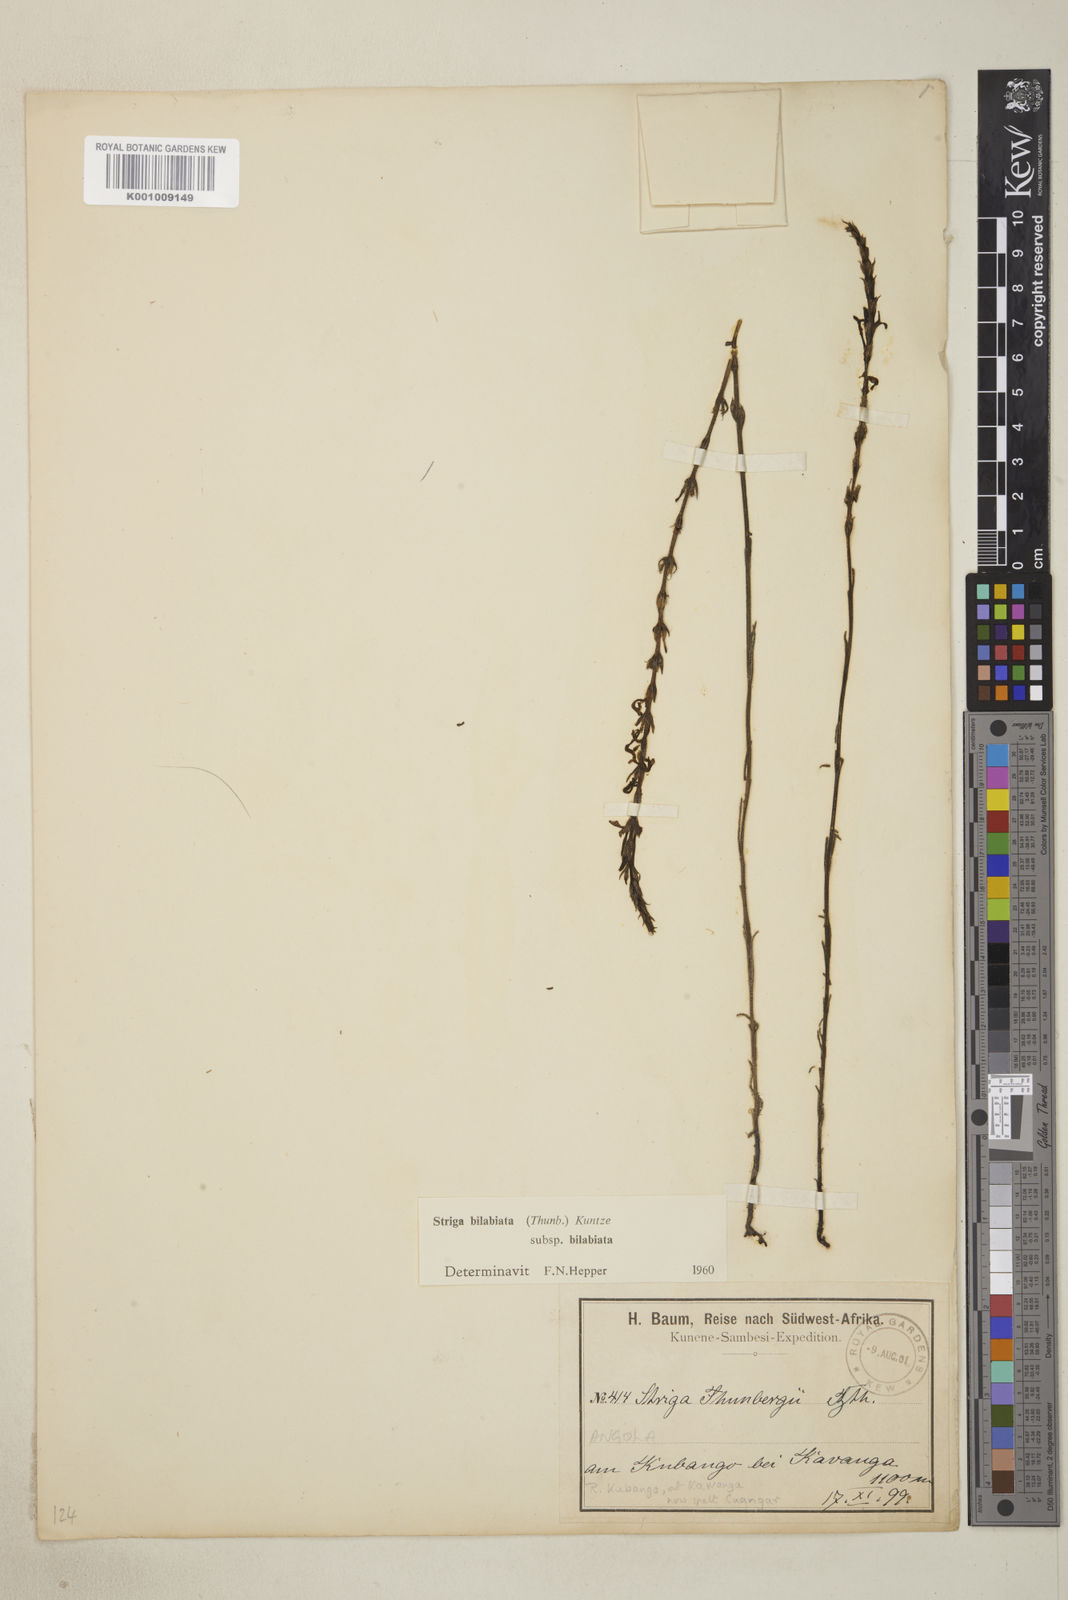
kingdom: Plantae
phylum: Tracheophyta
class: Magnoliopsida
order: Lamiales
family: Orobanchaceae
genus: Striga
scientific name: Striga bilabiata
